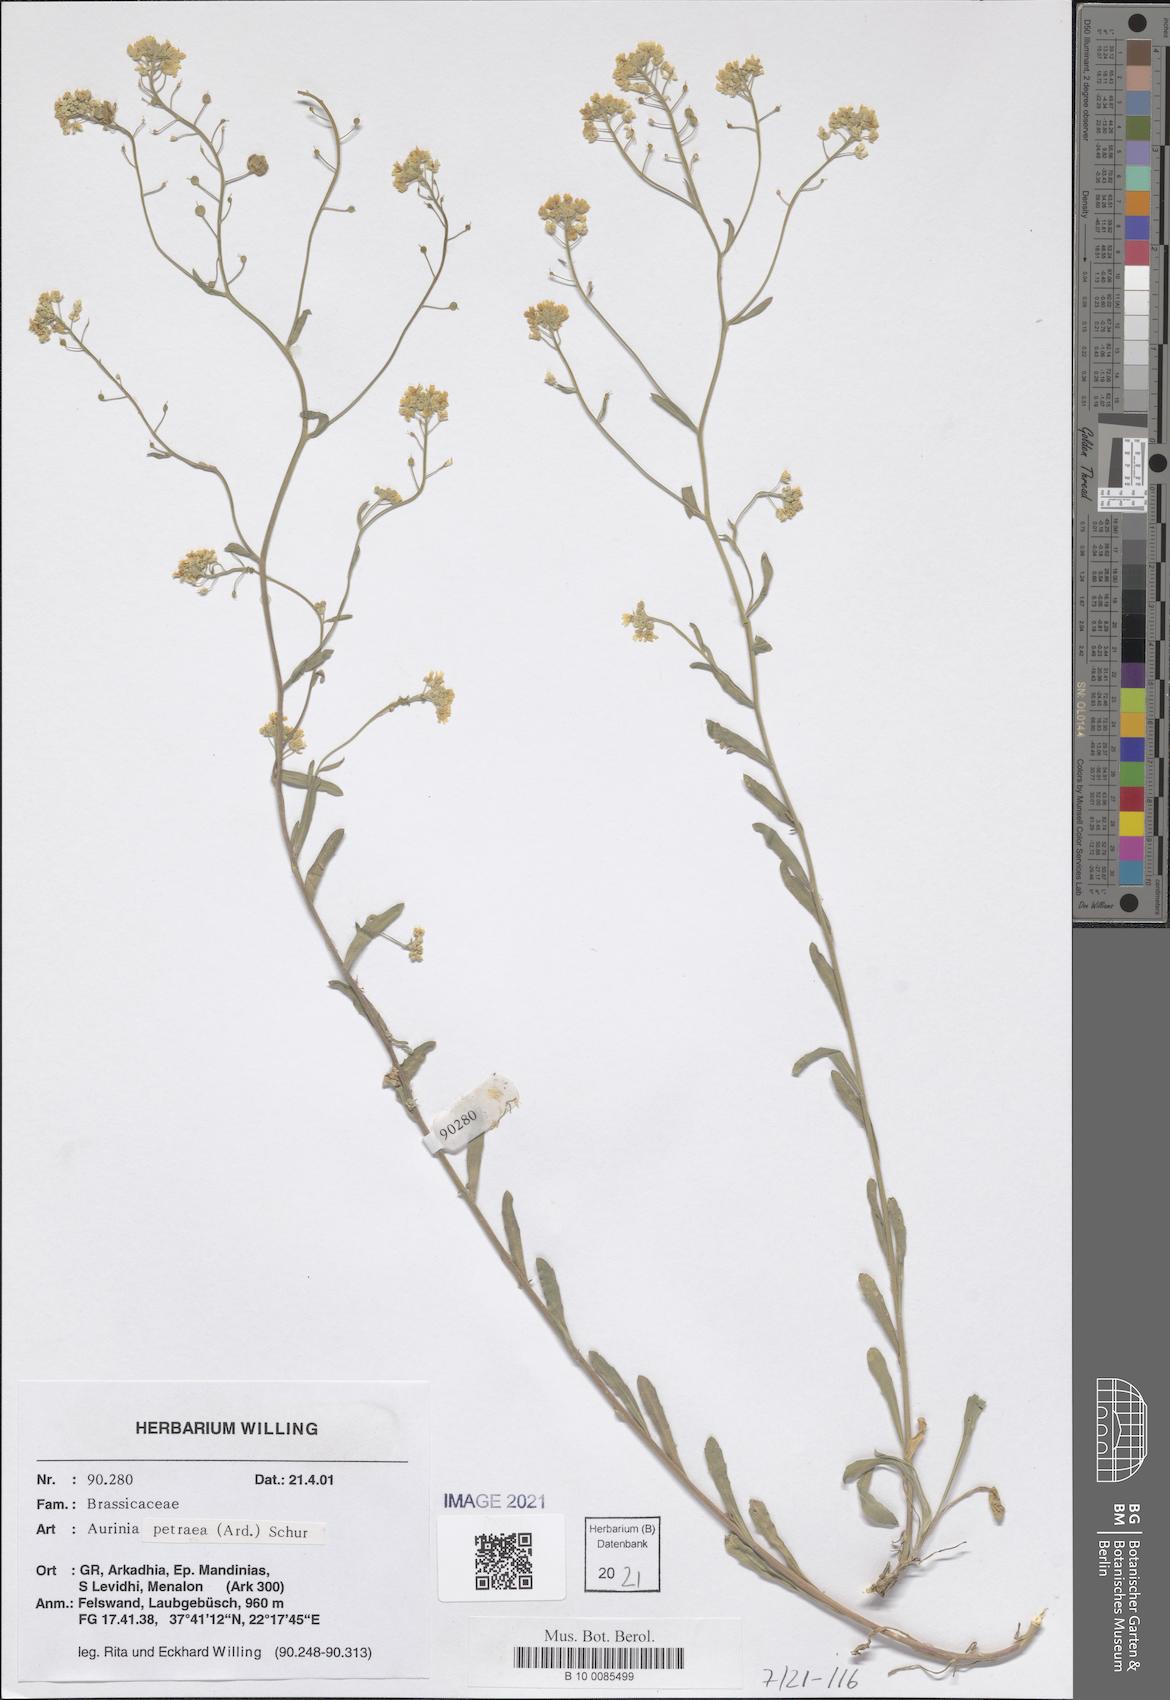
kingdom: Plantae
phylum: Tracheophyta
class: Magnoliopsida
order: Brassicales
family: Brassicaceae
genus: Aurinia
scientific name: Aurinia petraea
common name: Goldentuft
